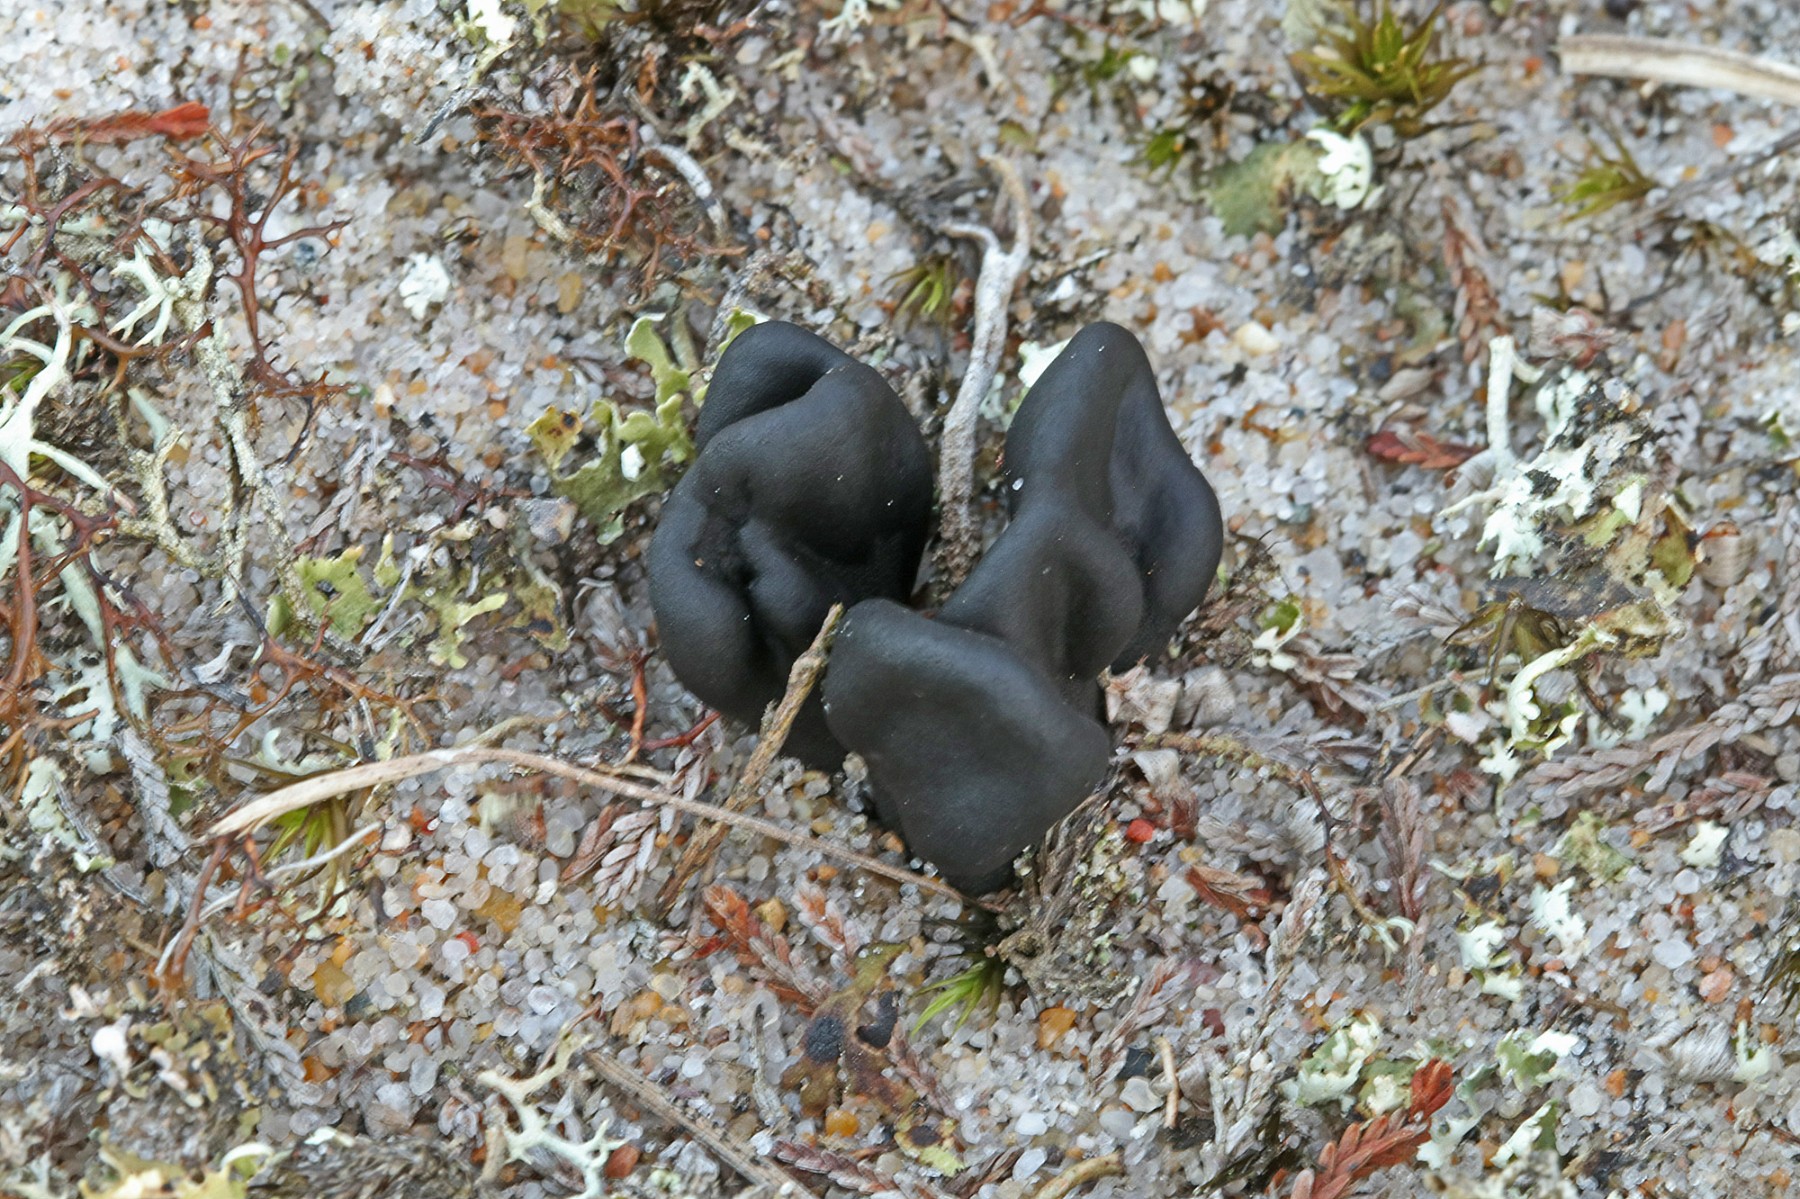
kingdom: Fungi
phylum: Ascomycota
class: Geoglossomycetes
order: Geoglossales
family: Geoglossaceae
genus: Sabuloglossum
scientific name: Sabuloglossum arenarium
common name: klit-jordtunge
